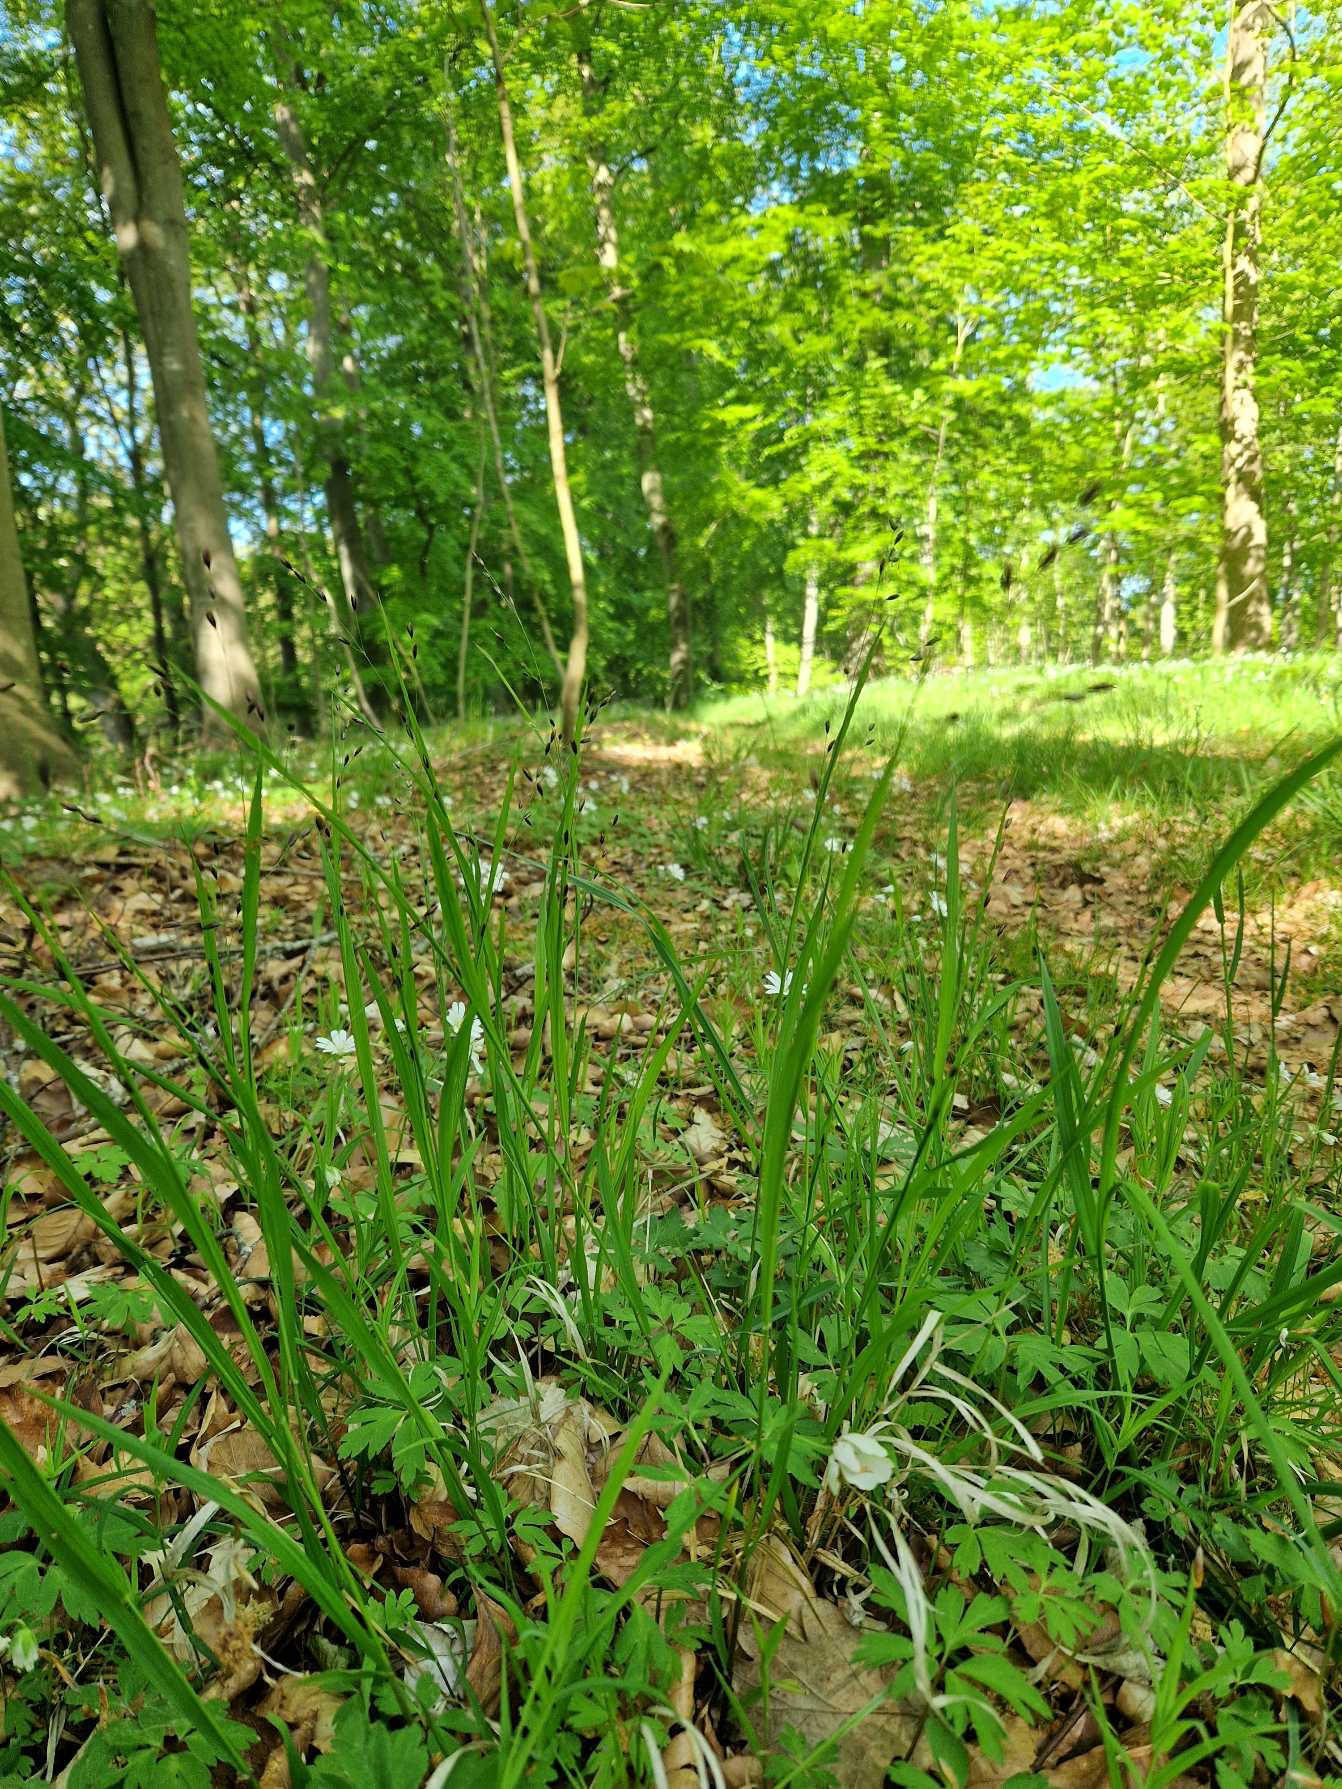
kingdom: Plantae
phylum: Tracheophyta
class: Liliopsida
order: Poales
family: Poaceae
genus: Melica
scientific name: Melica uniflora
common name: Enblomstret flitteraks
